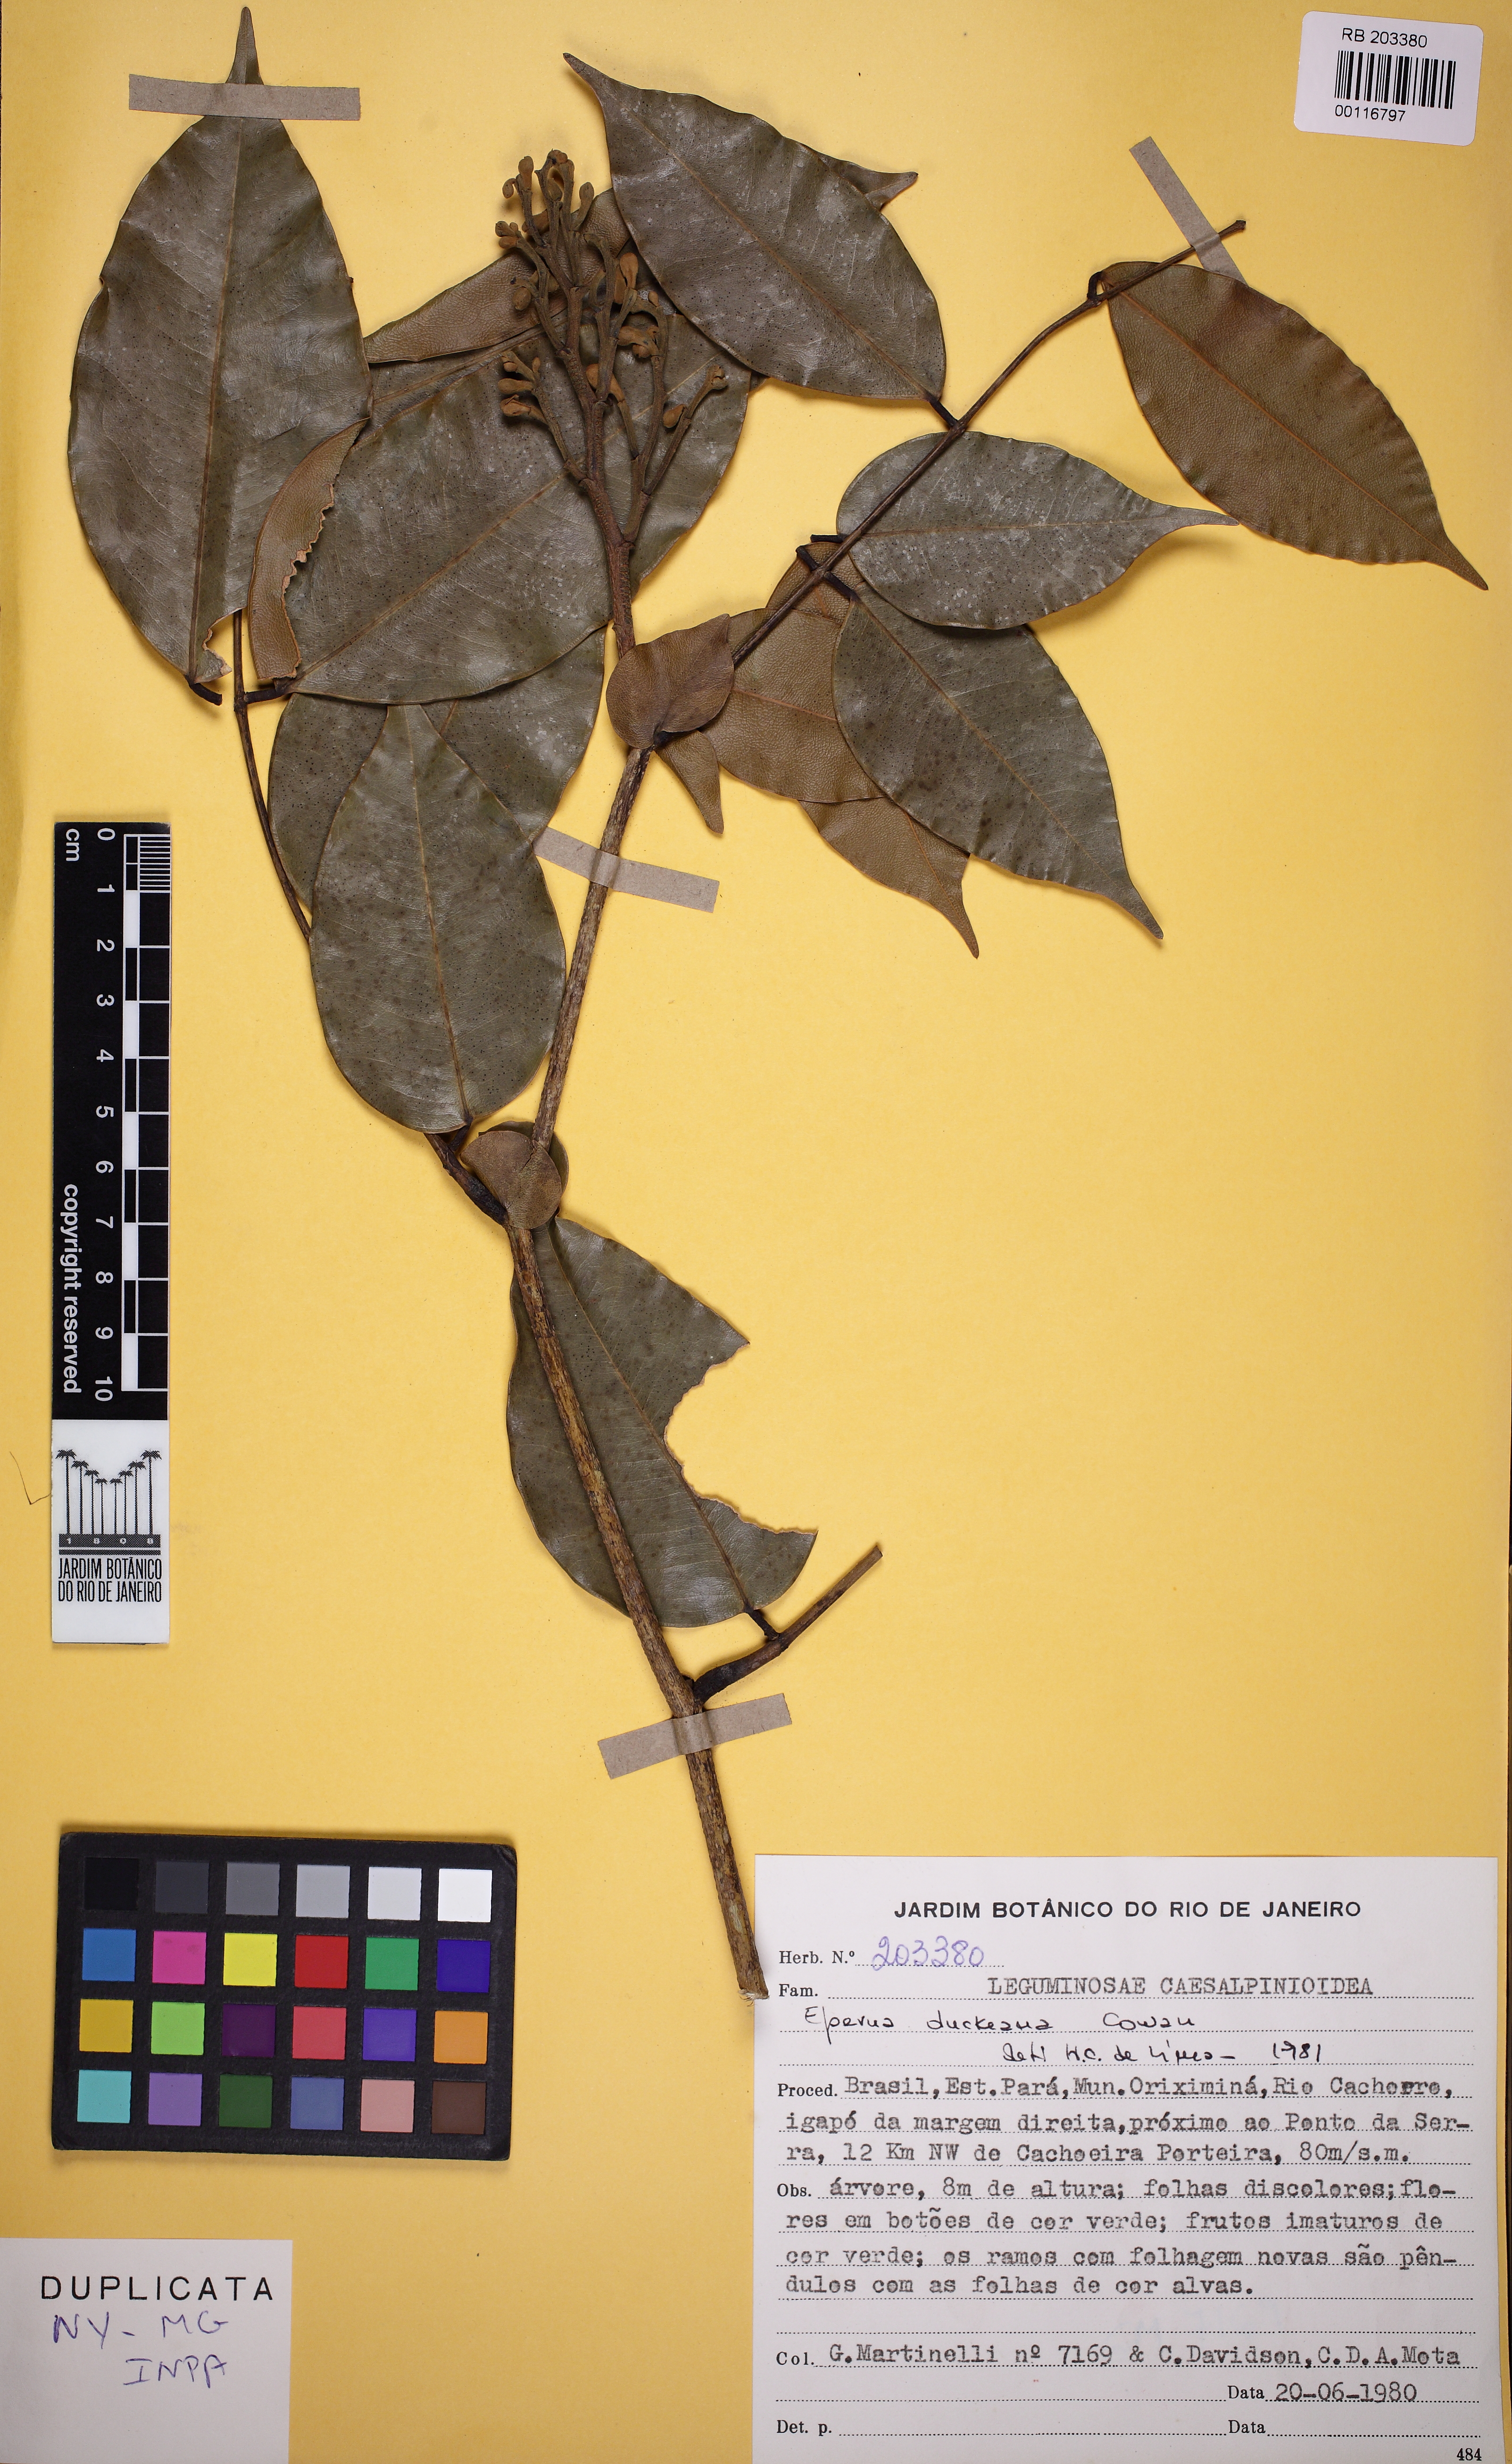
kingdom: Plantae
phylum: Tracheophyta
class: Magnoliopsida
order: Fabales
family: Fabaceae
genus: Eperua
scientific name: Eperua duckeana
